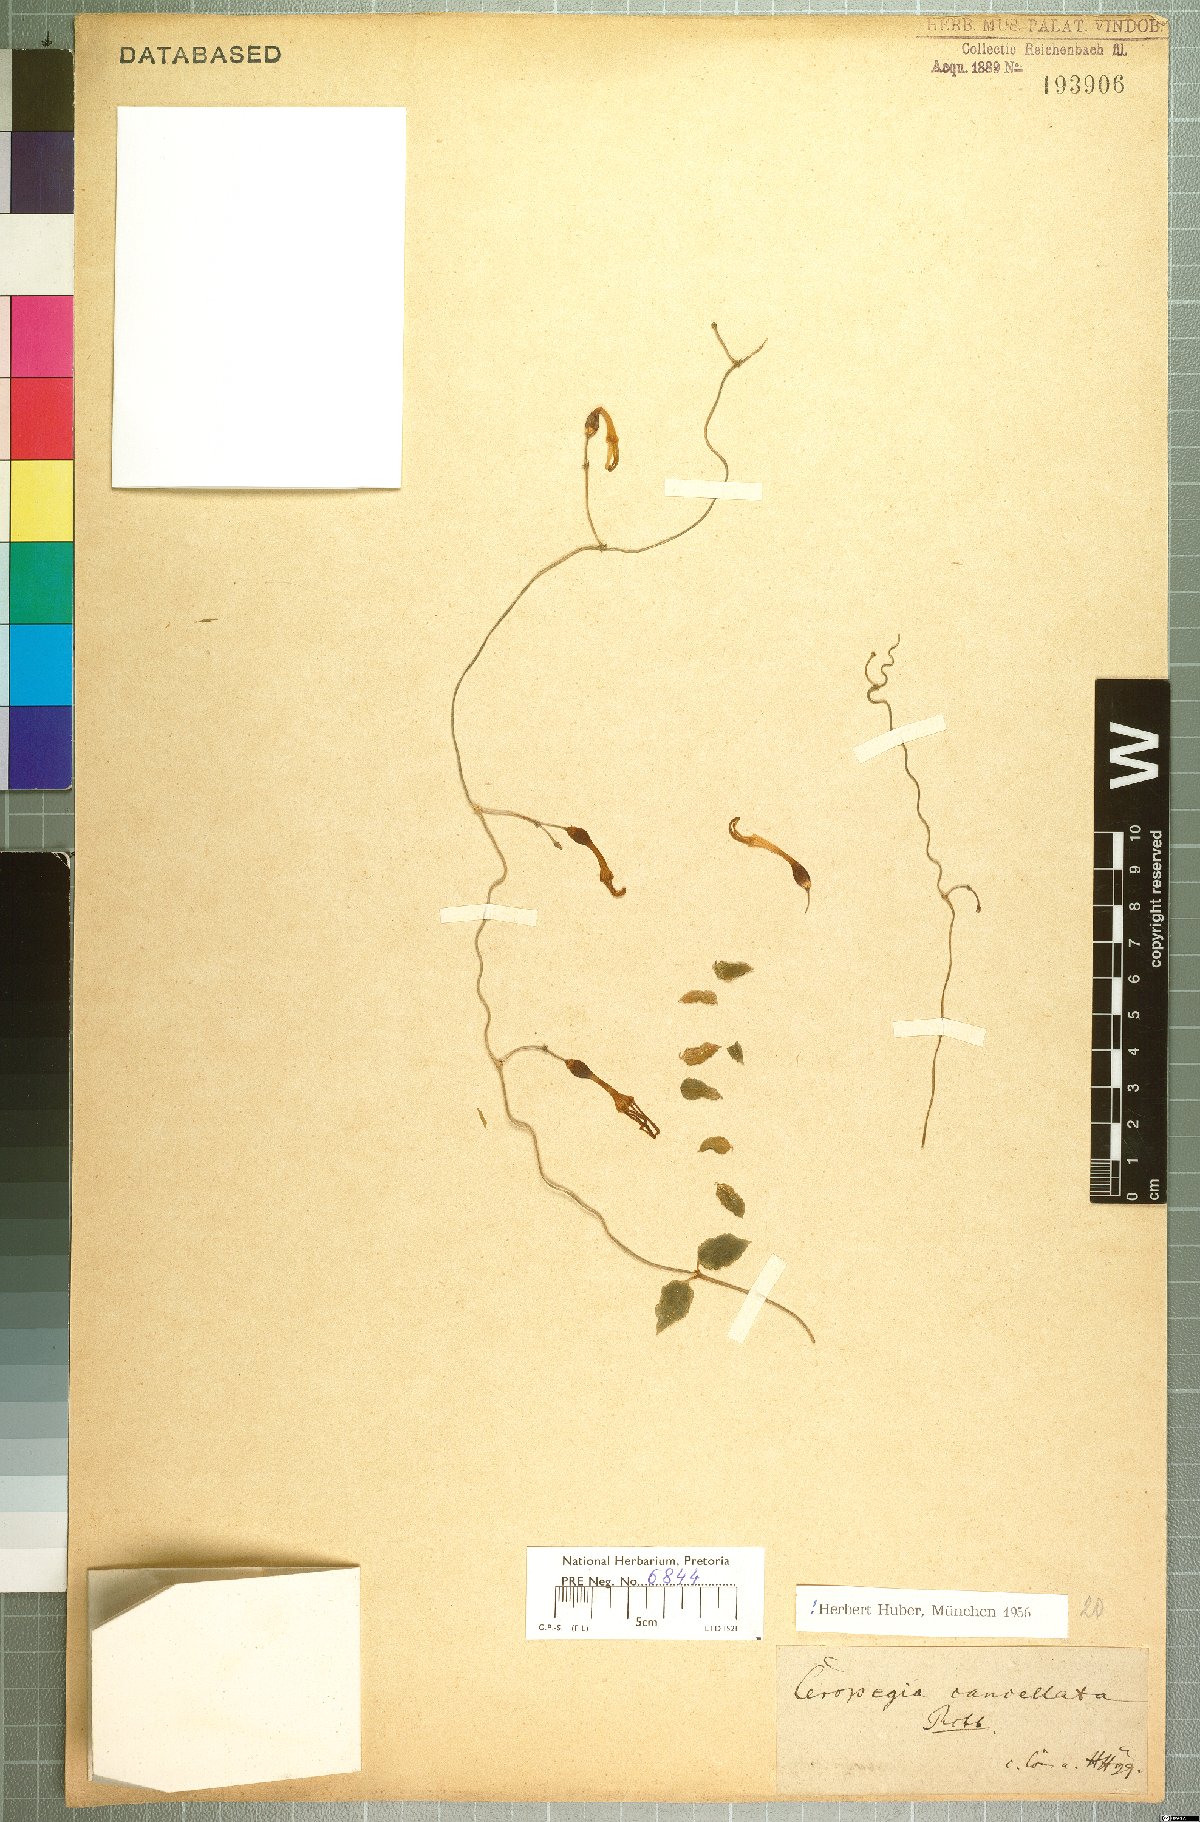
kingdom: Plantae
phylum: Tracheophyta
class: Magnoliopsida
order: Gentianales
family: Apocynaceae
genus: Ceropegia
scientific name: Ceropegia cancellata
